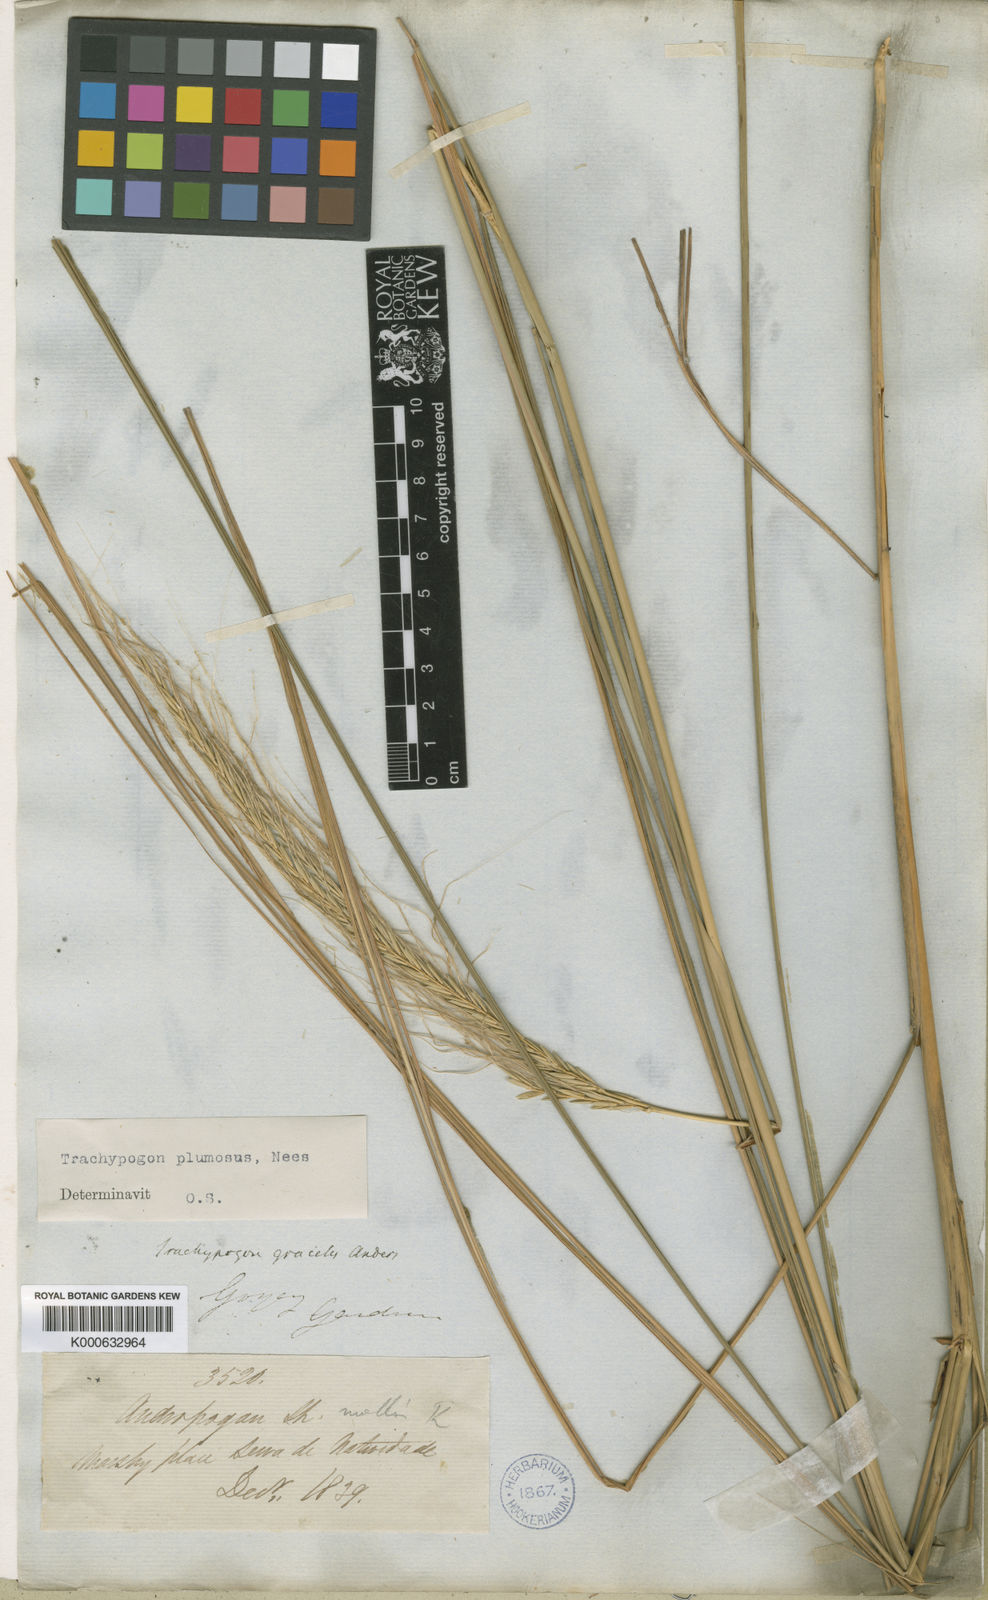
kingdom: Plantae
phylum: Tracheophyta
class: Liliopsida
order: Poales
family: Poaceae
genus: Trachypogon
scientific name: Trachypogon spicatus
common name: Crinkle-awn
